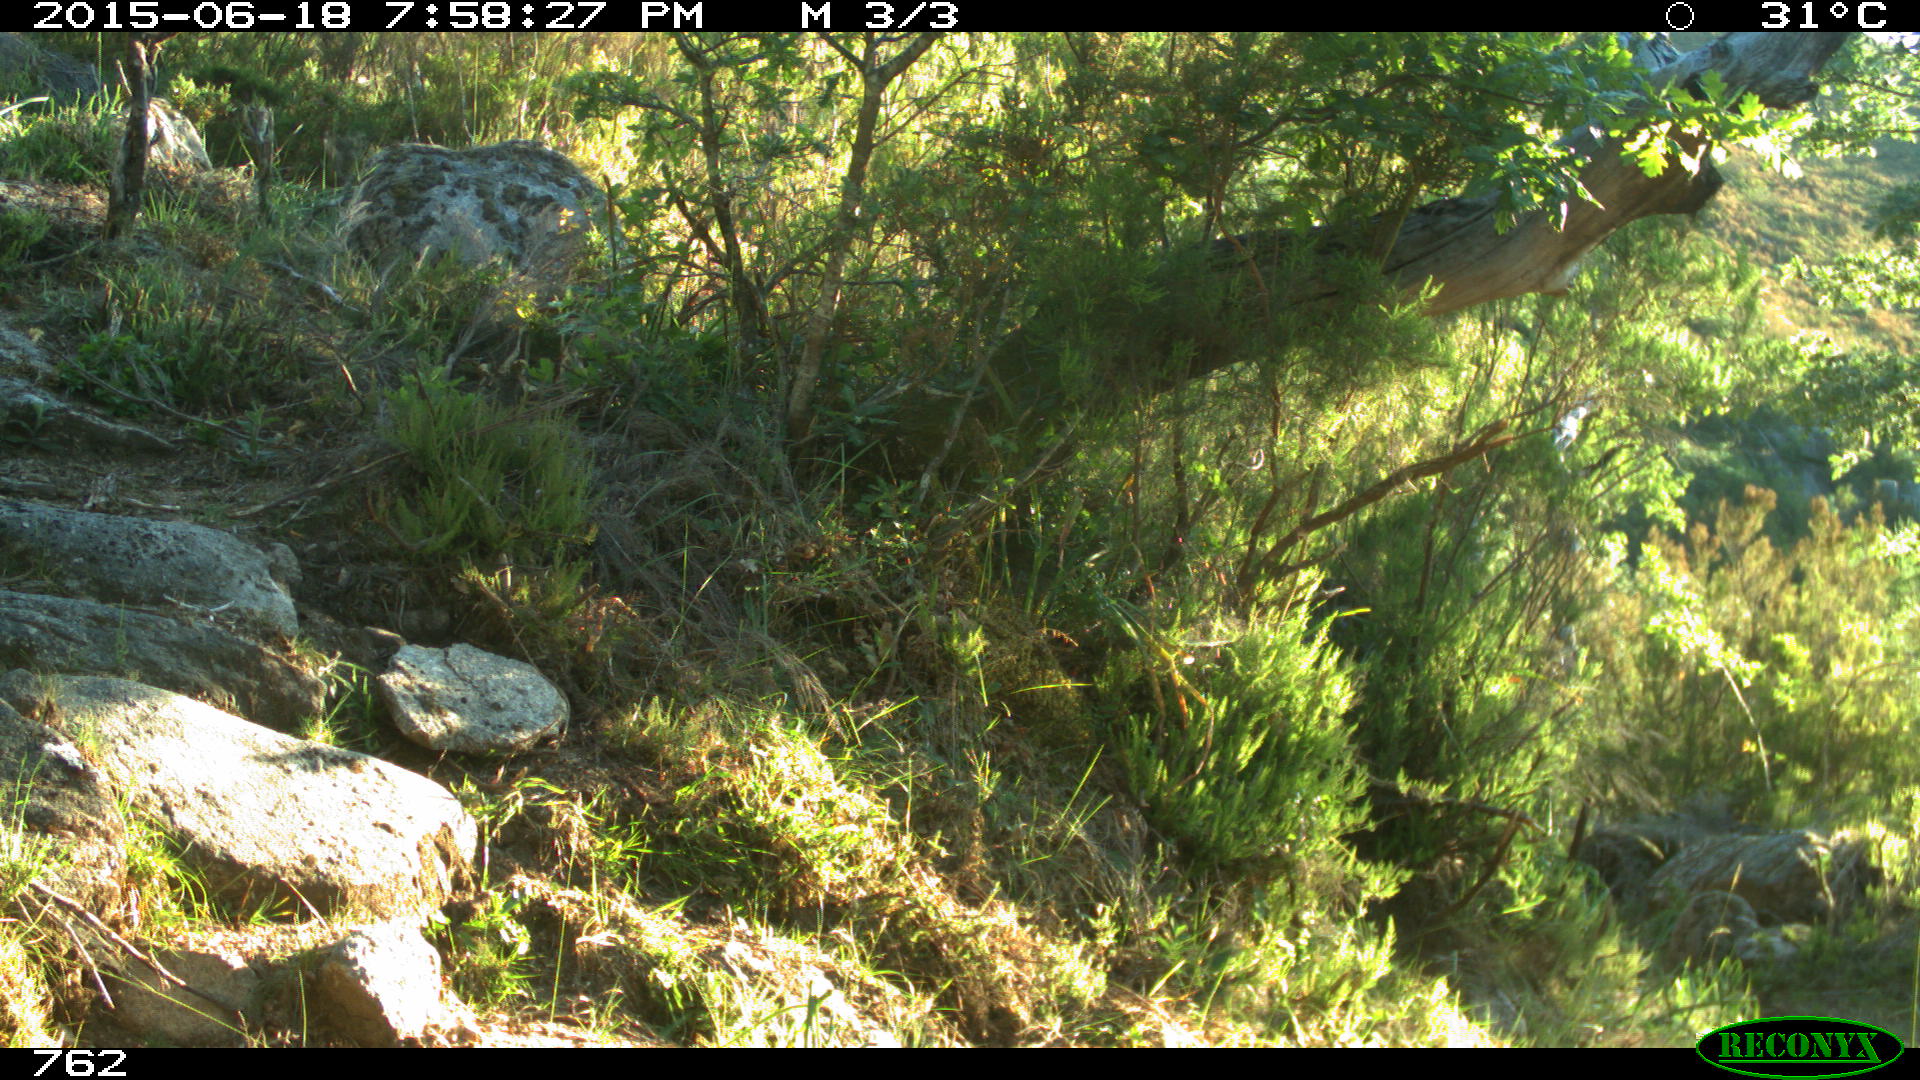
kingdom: Animalia
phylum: Chordata
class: Mammalia
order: Artiodactyla
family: Bovidae
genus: Bos
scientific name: Bos taurus
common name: Domesticated cattle
